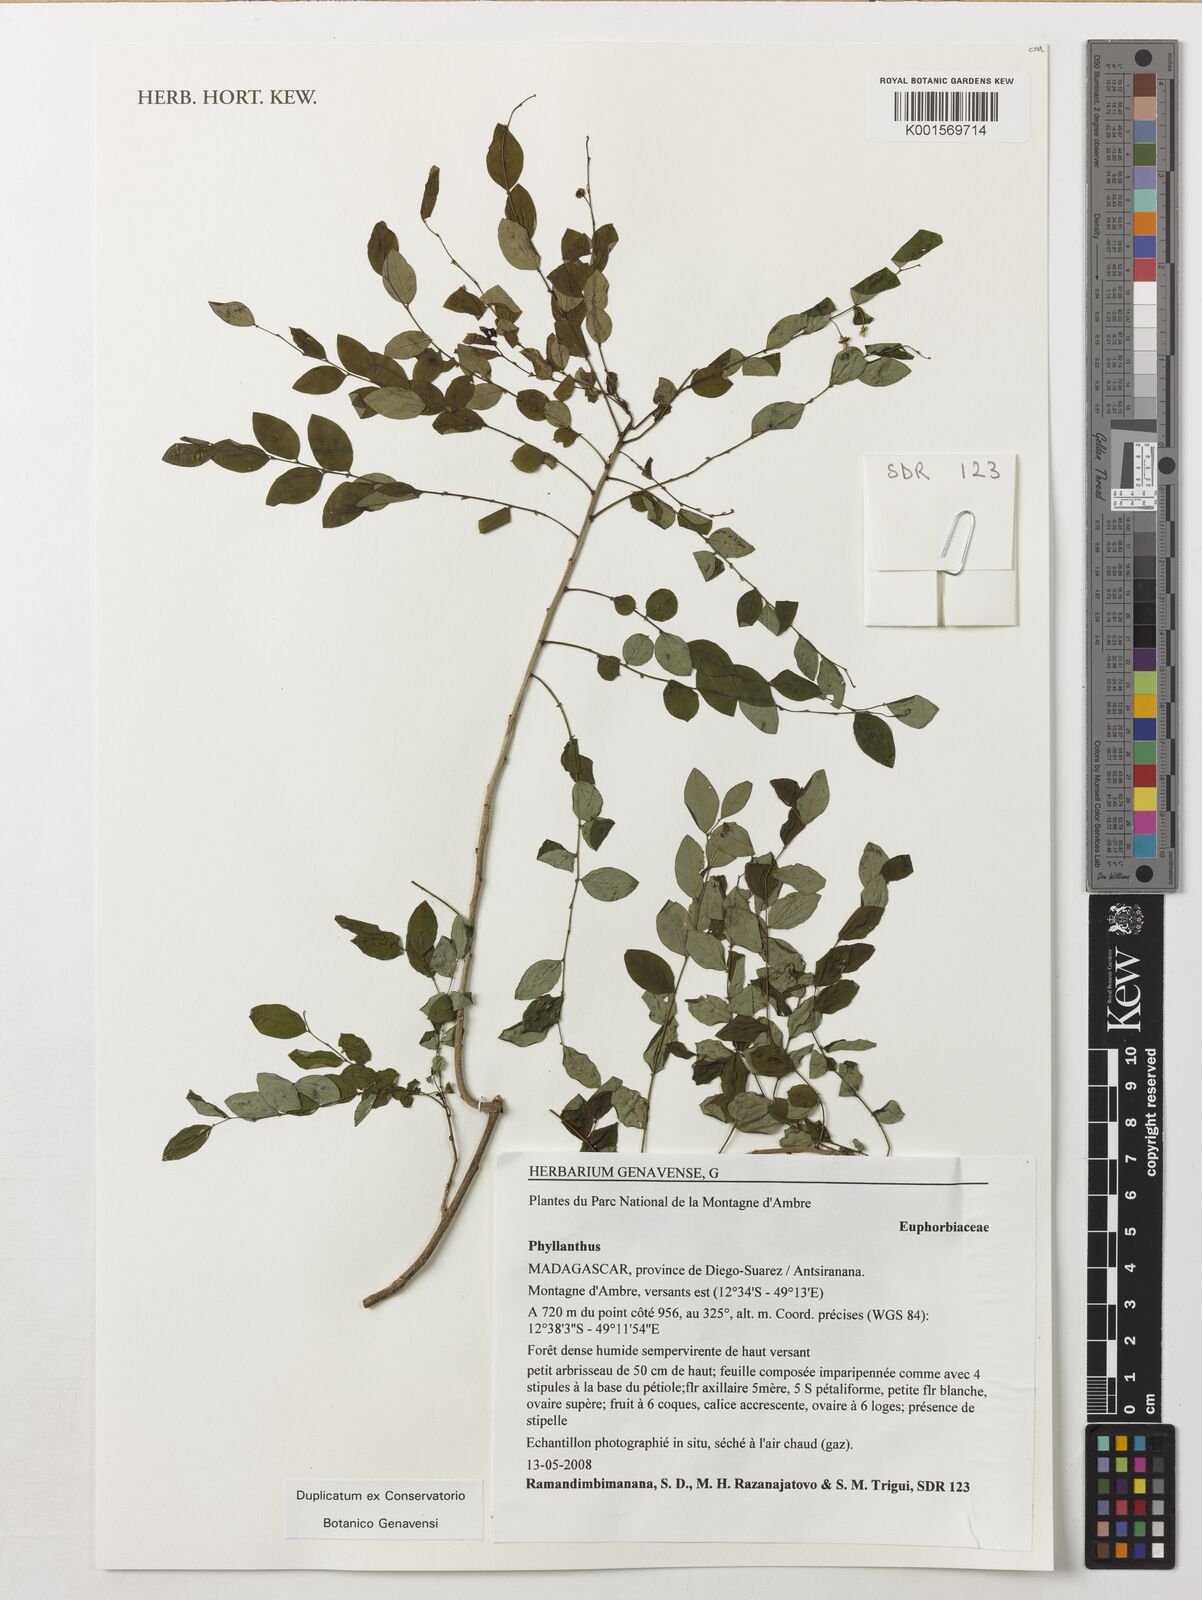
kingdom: Plantae
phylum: Tracheophyta
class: Magnoliopsida
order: Malpighiales
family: Phyllanthaceae
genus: Phyllanthus
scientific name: Phyllanthus
